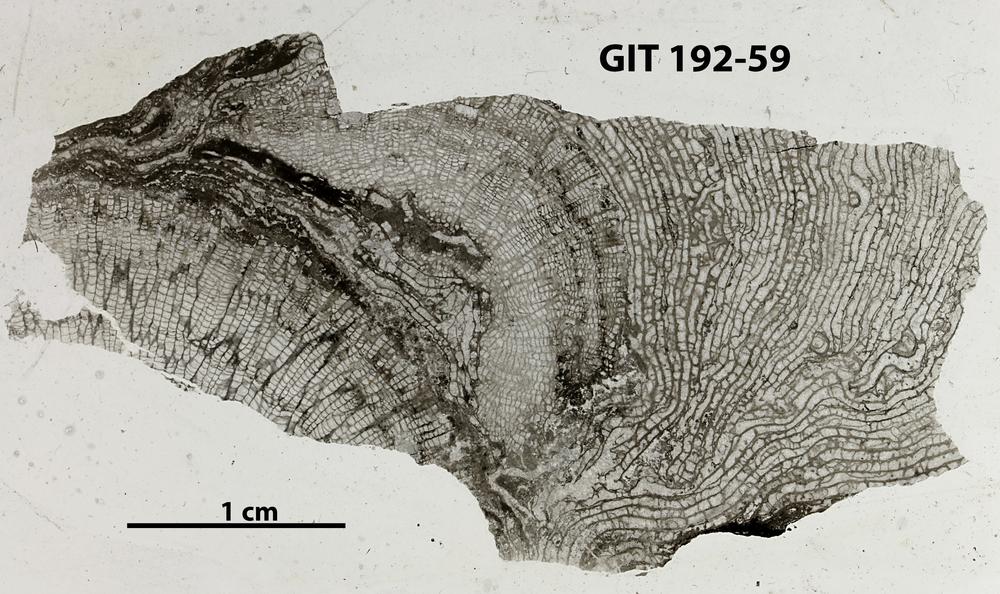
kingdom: Animalia
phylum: Porifera
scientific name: Porifera
